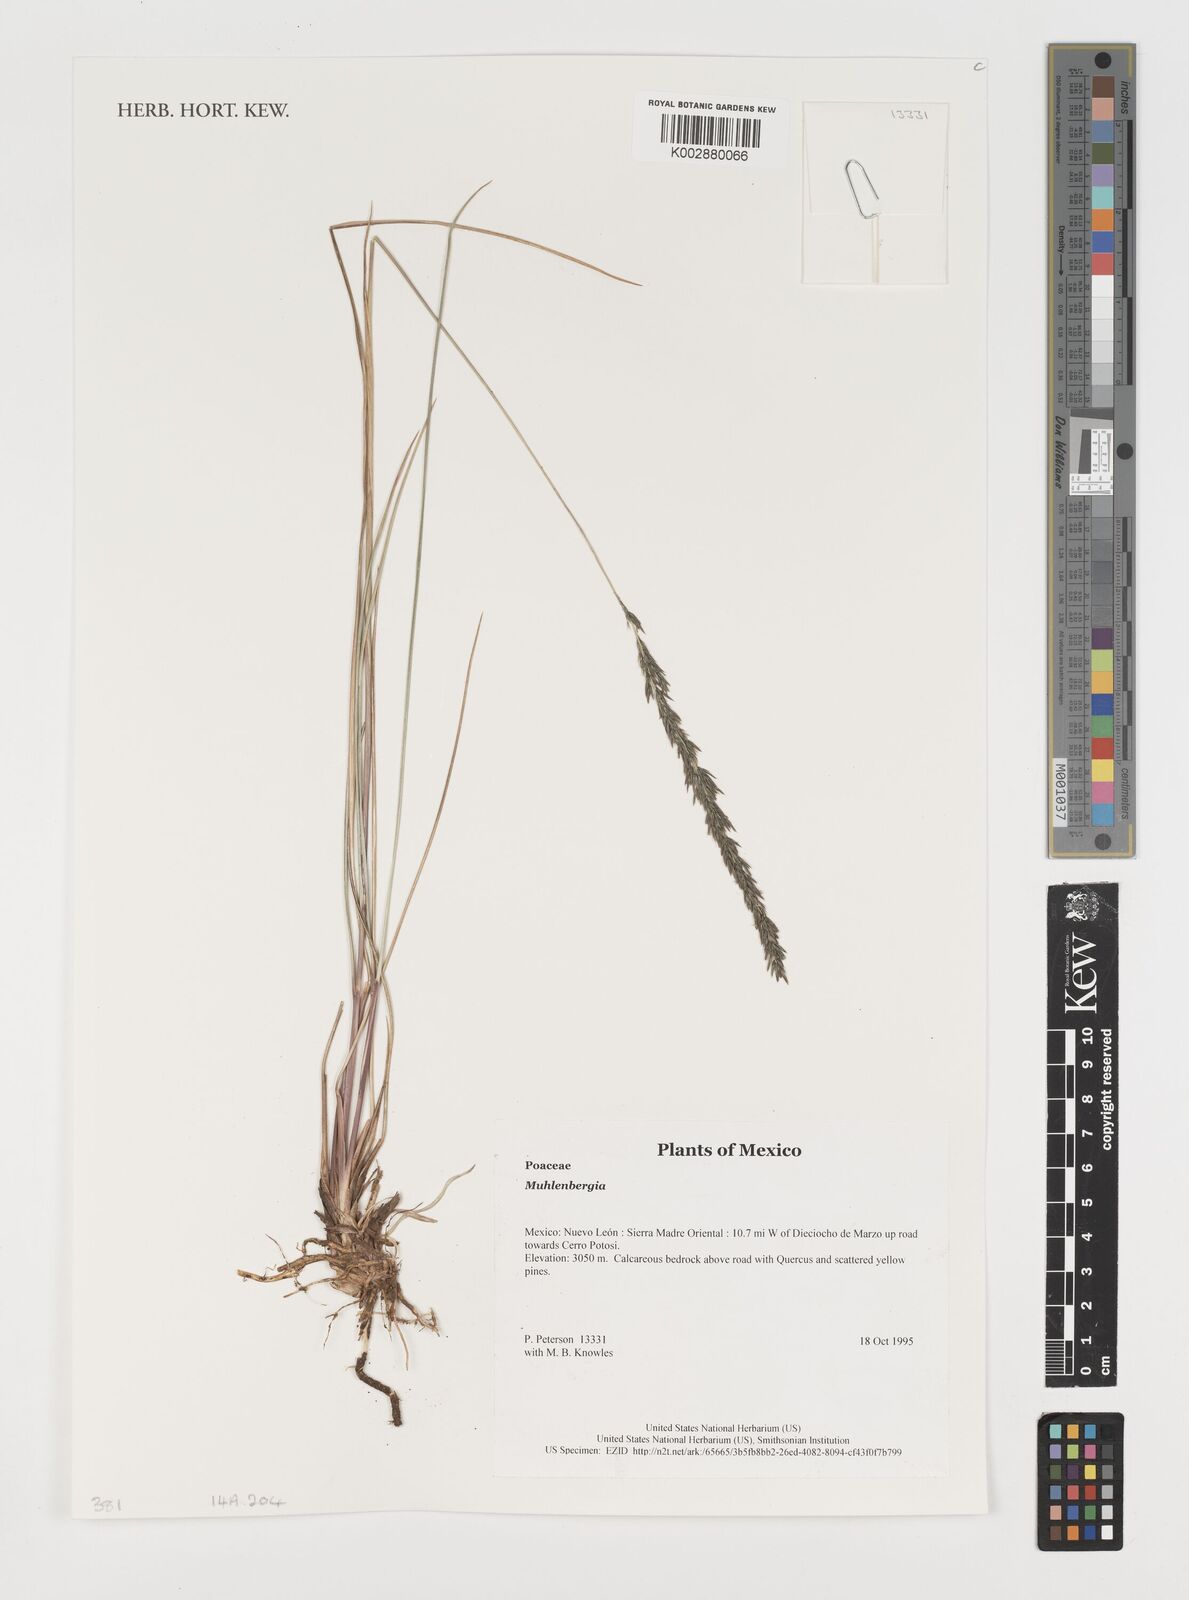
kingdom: Plantae
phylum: Tracheophyta
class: Liliopsida
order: Poales
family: Poaceae
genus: Muhlenbergia
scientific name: Muhlenbergia
